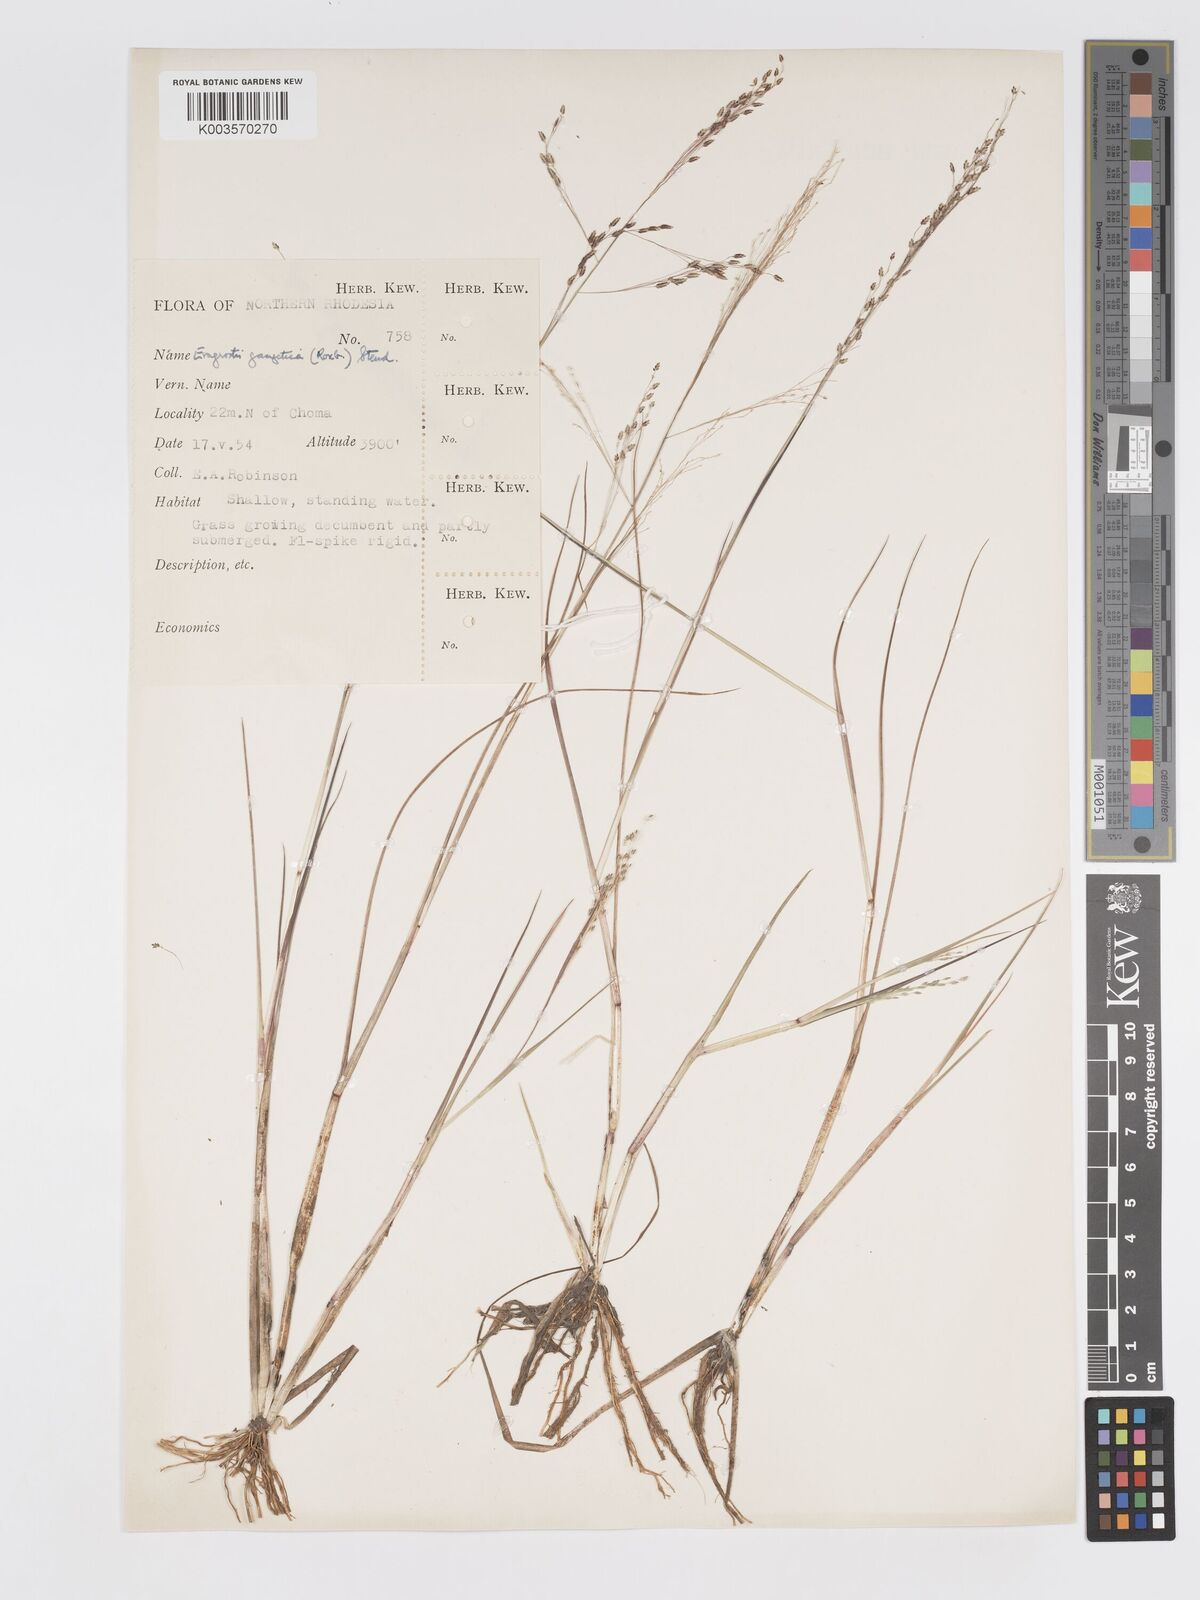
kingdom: Plantae
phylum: Tracheophyta
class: Liliopsida
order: Poales
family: Poaceae
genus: Eragrostis
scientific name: Eragrostis gangetica
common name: Slimflower lovegrass
